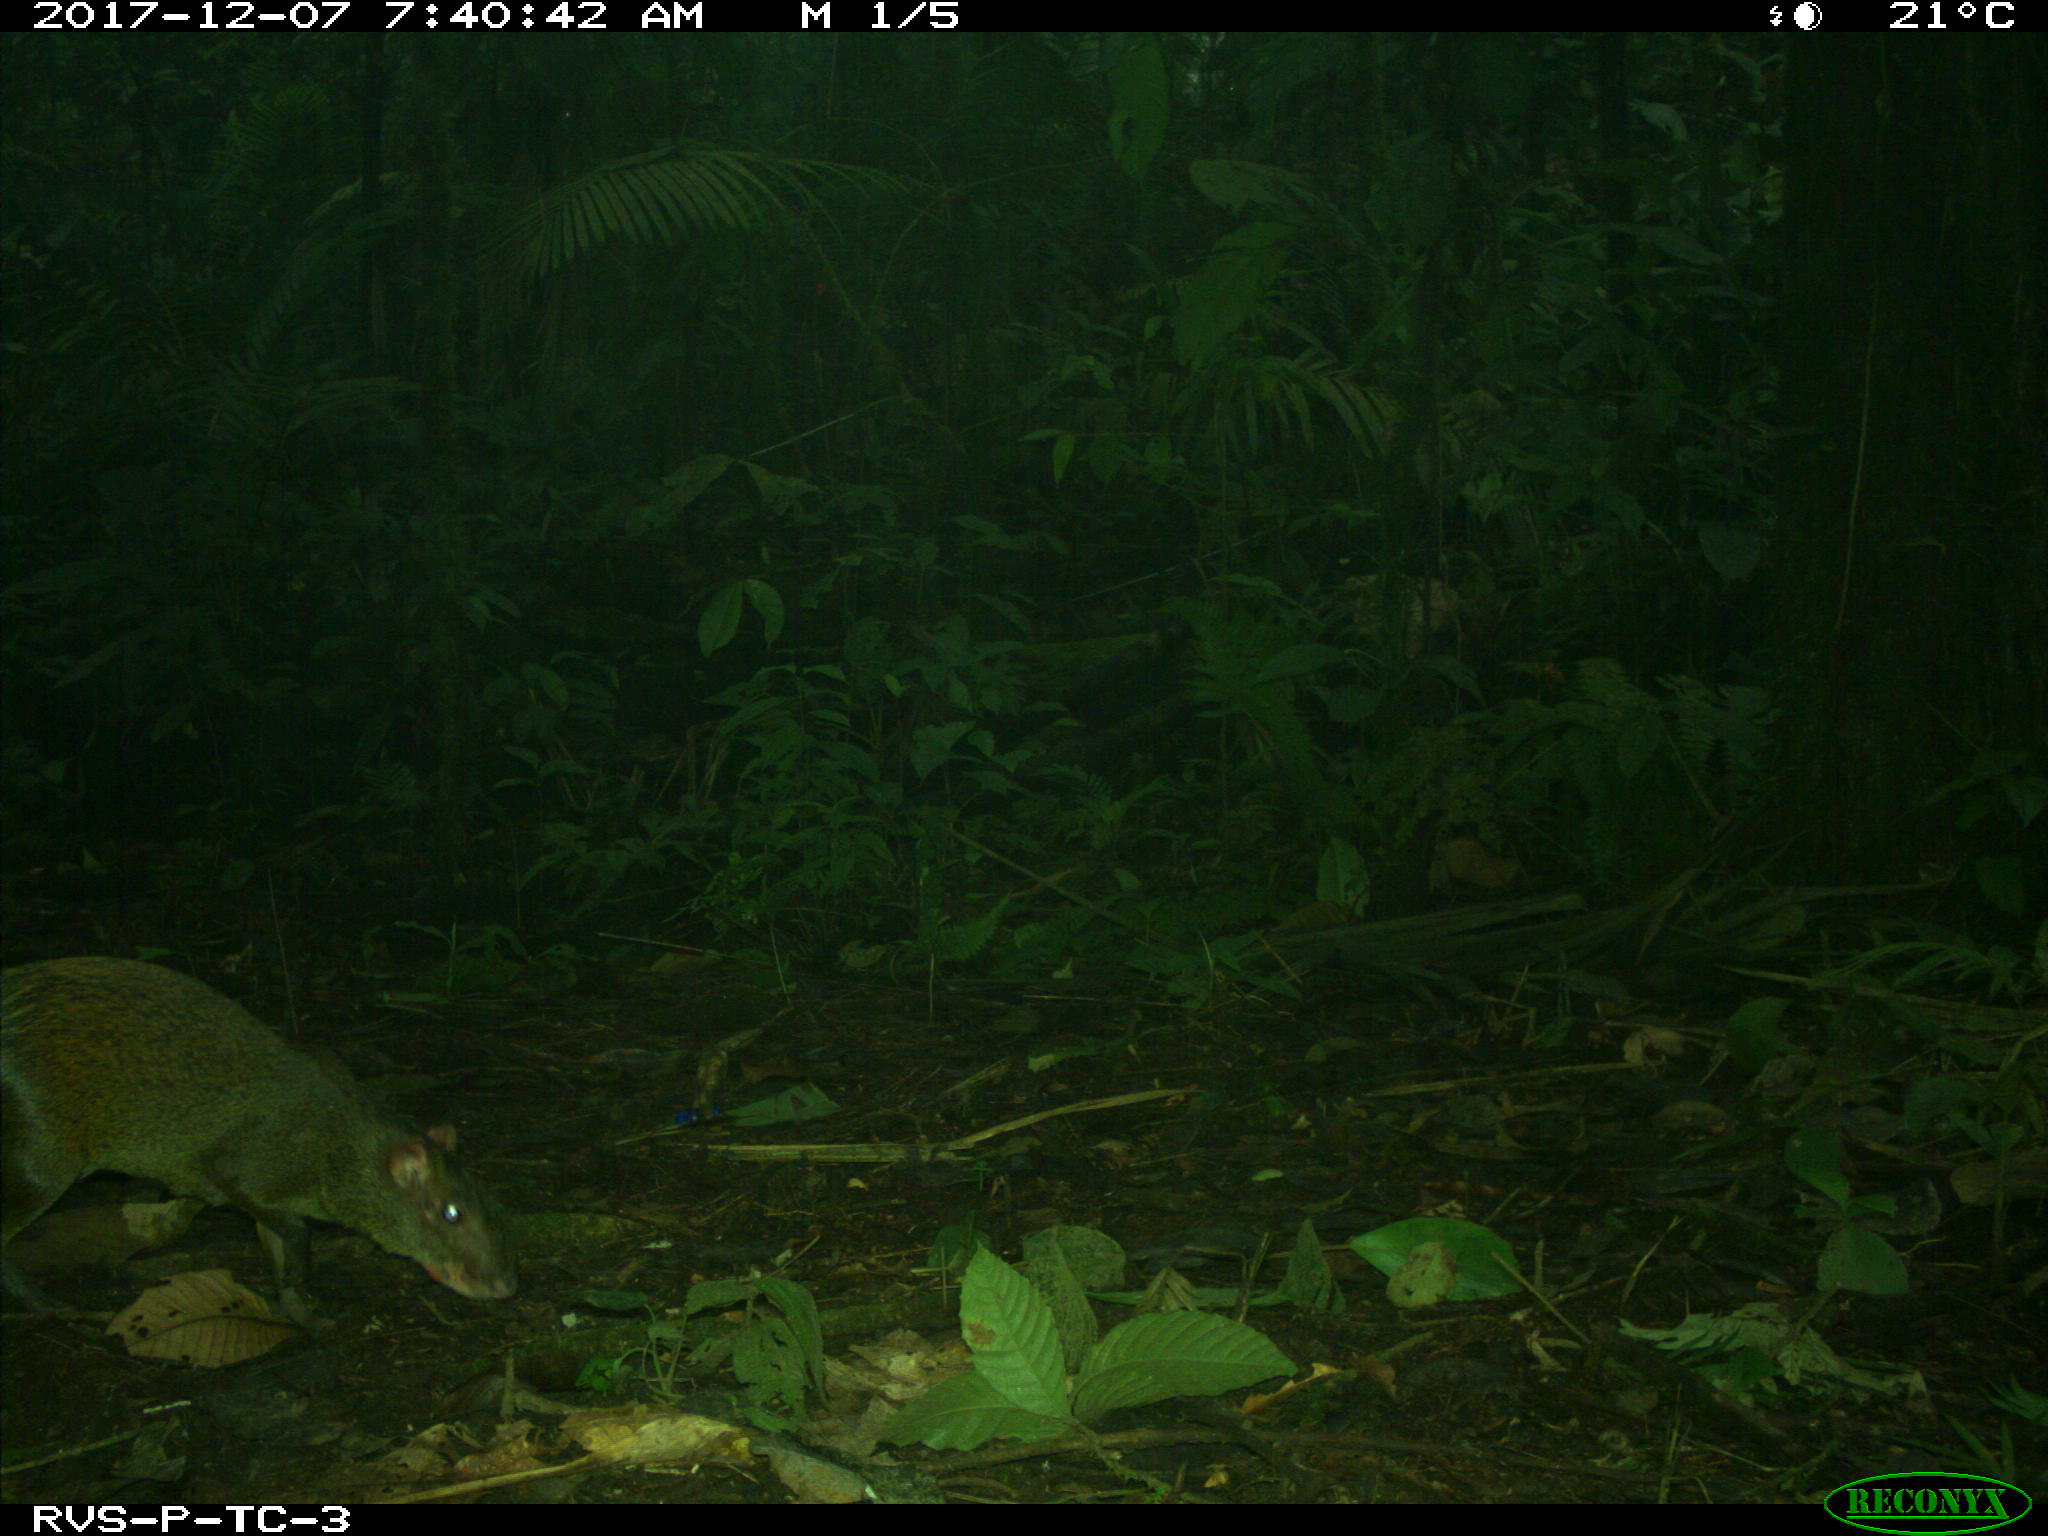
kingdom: Animalia
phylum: Chordata
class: Mammalia
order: Rodentia
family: Dasyproctidae
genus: Dasyprocta
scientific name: Dasyprocta punctata
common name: Central american agouti
